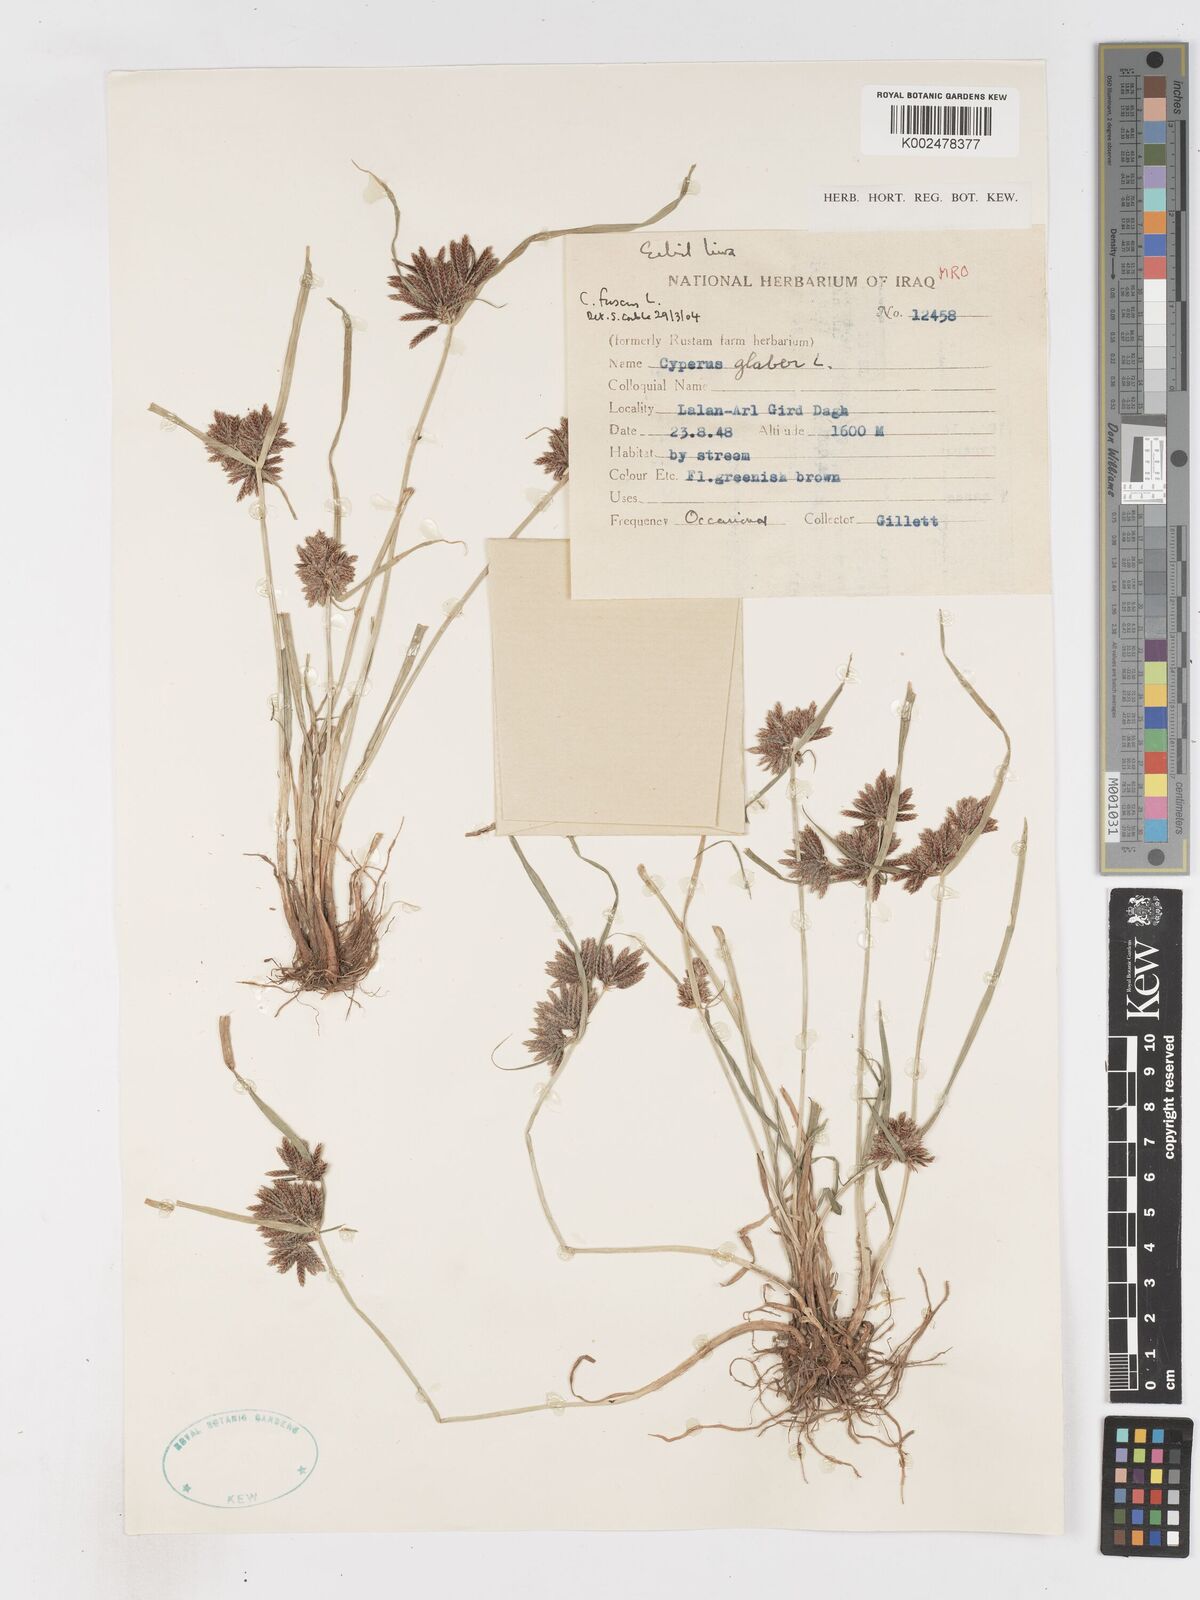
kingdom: Plantae
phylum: Tracheophyta
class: Liliopsida
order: Poales
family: Cyperaceae
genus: Cyperus
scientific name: Cyperus fuscus
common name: Brown galingale
